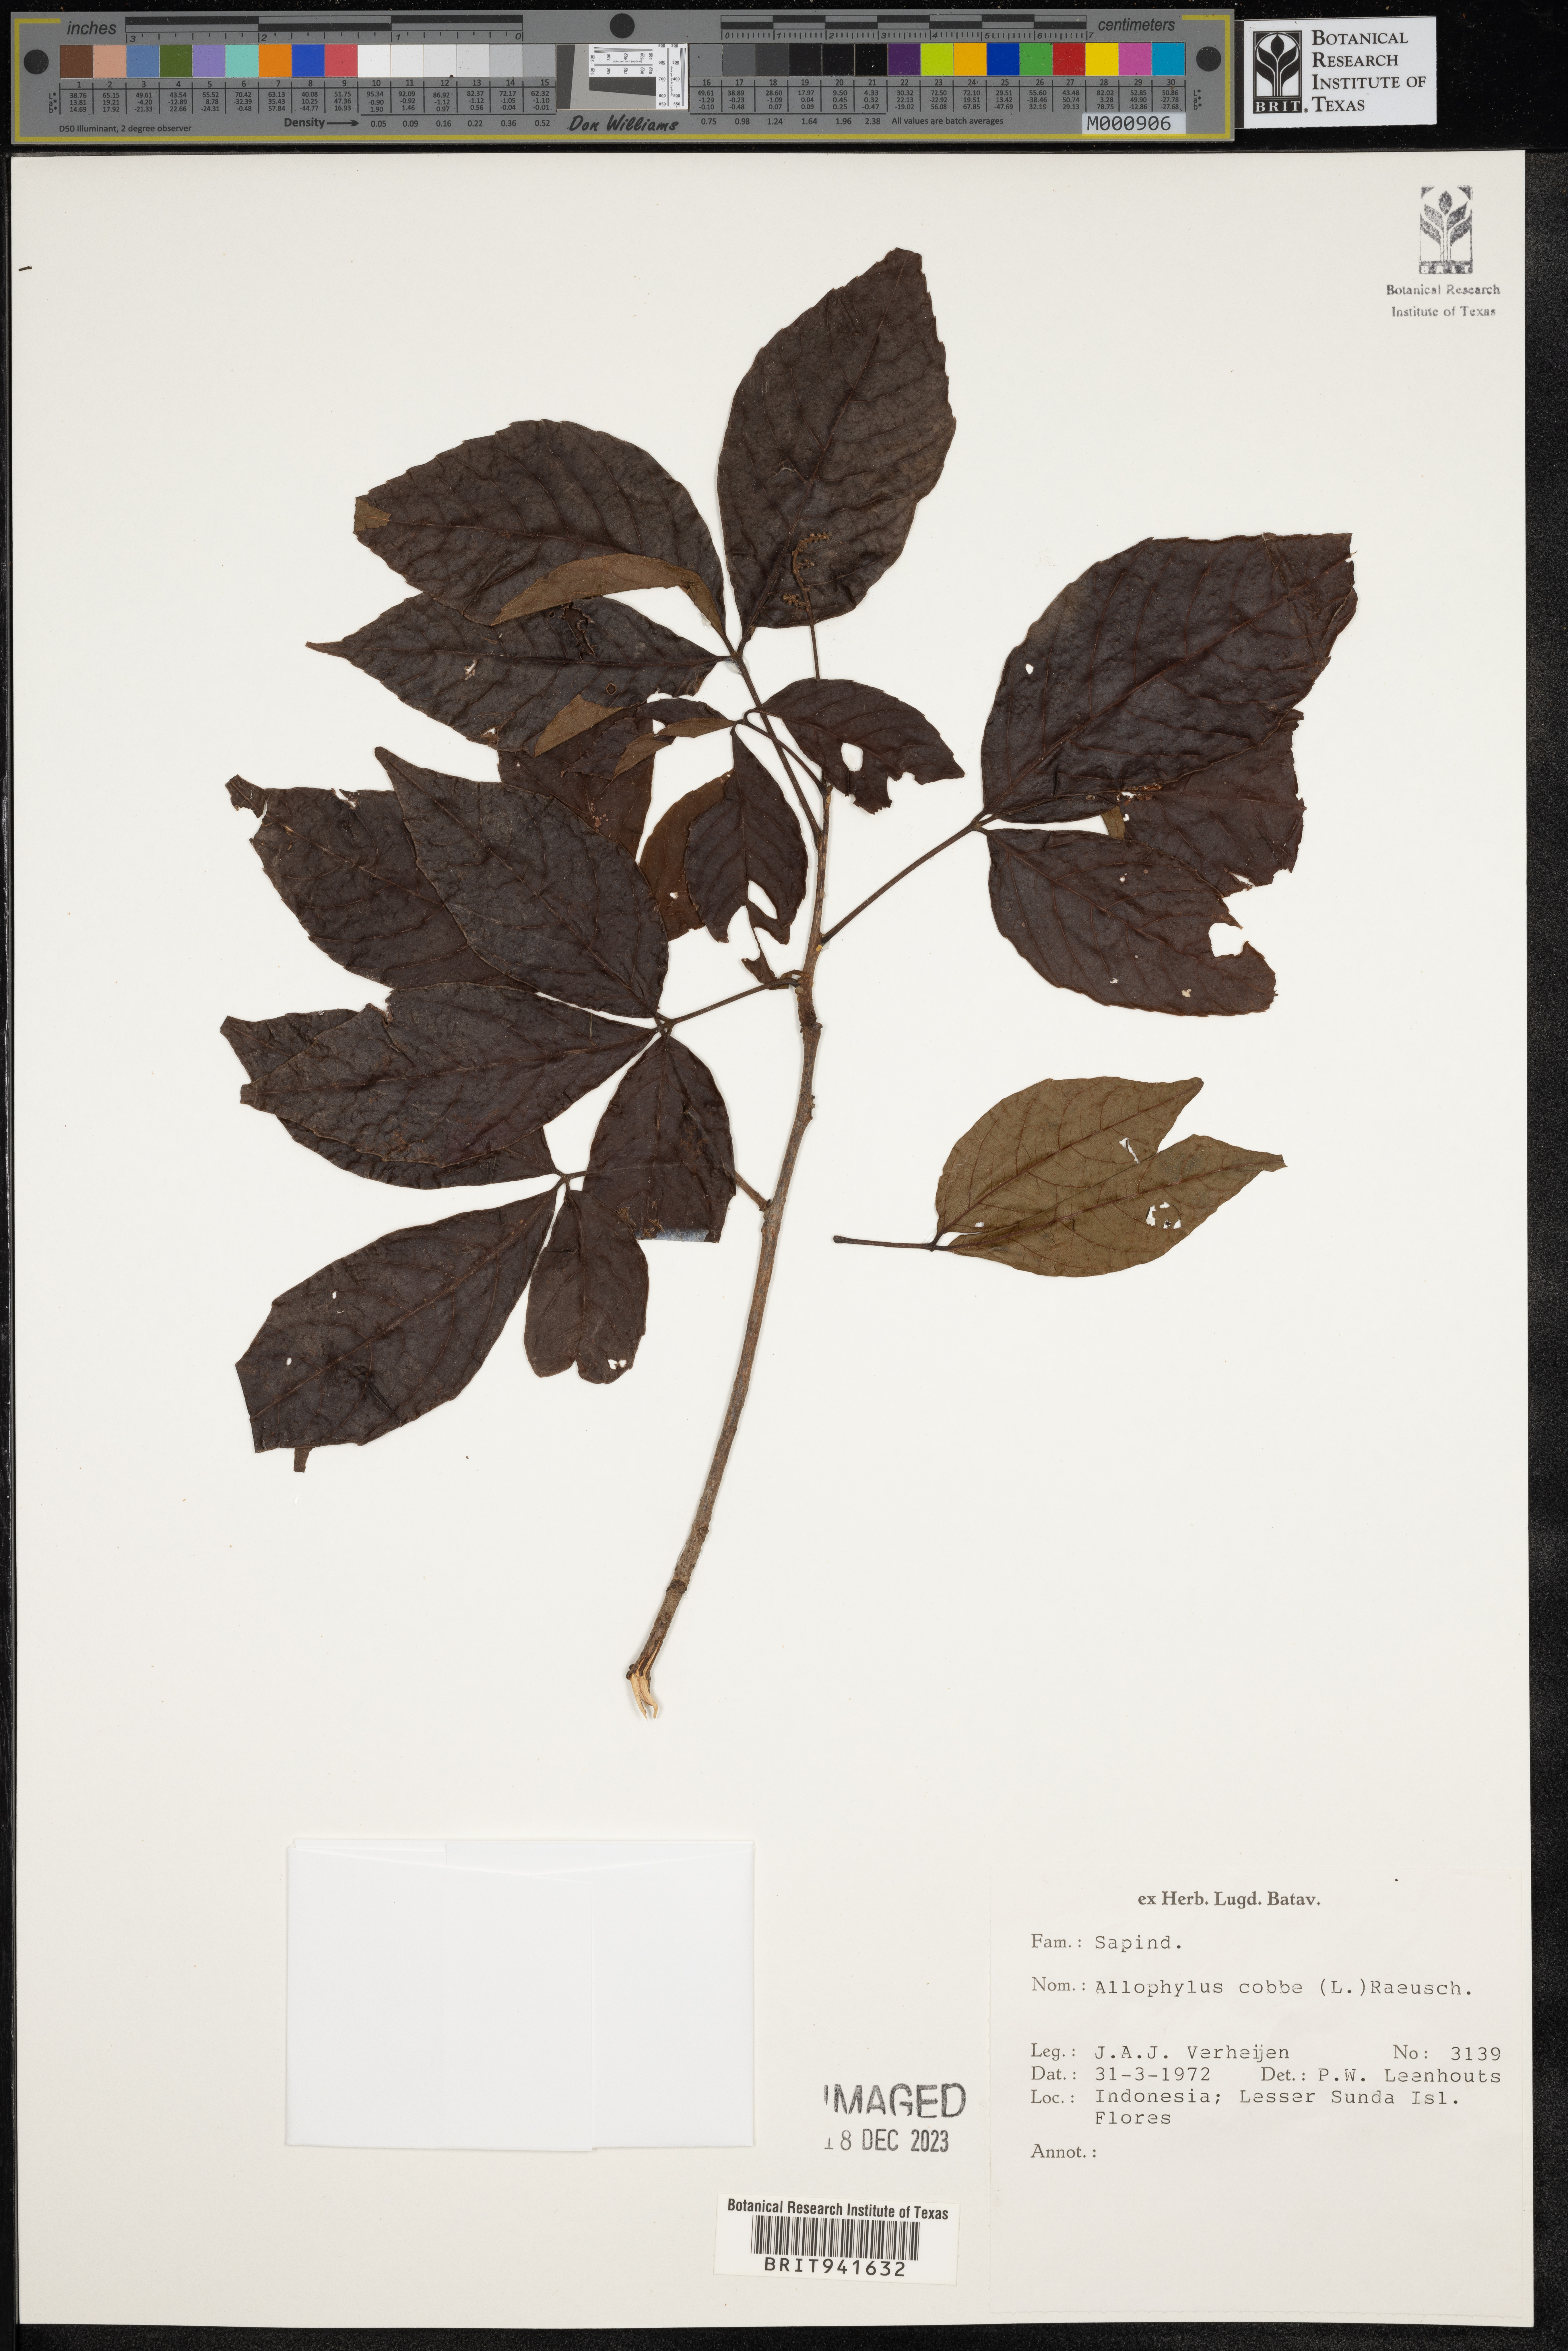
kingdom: Plantae
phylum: Tracheophyta
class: Magnoliopsida
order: Ericales
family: Polemoniaceae
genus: Allophyllum
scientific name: Allophyllum
